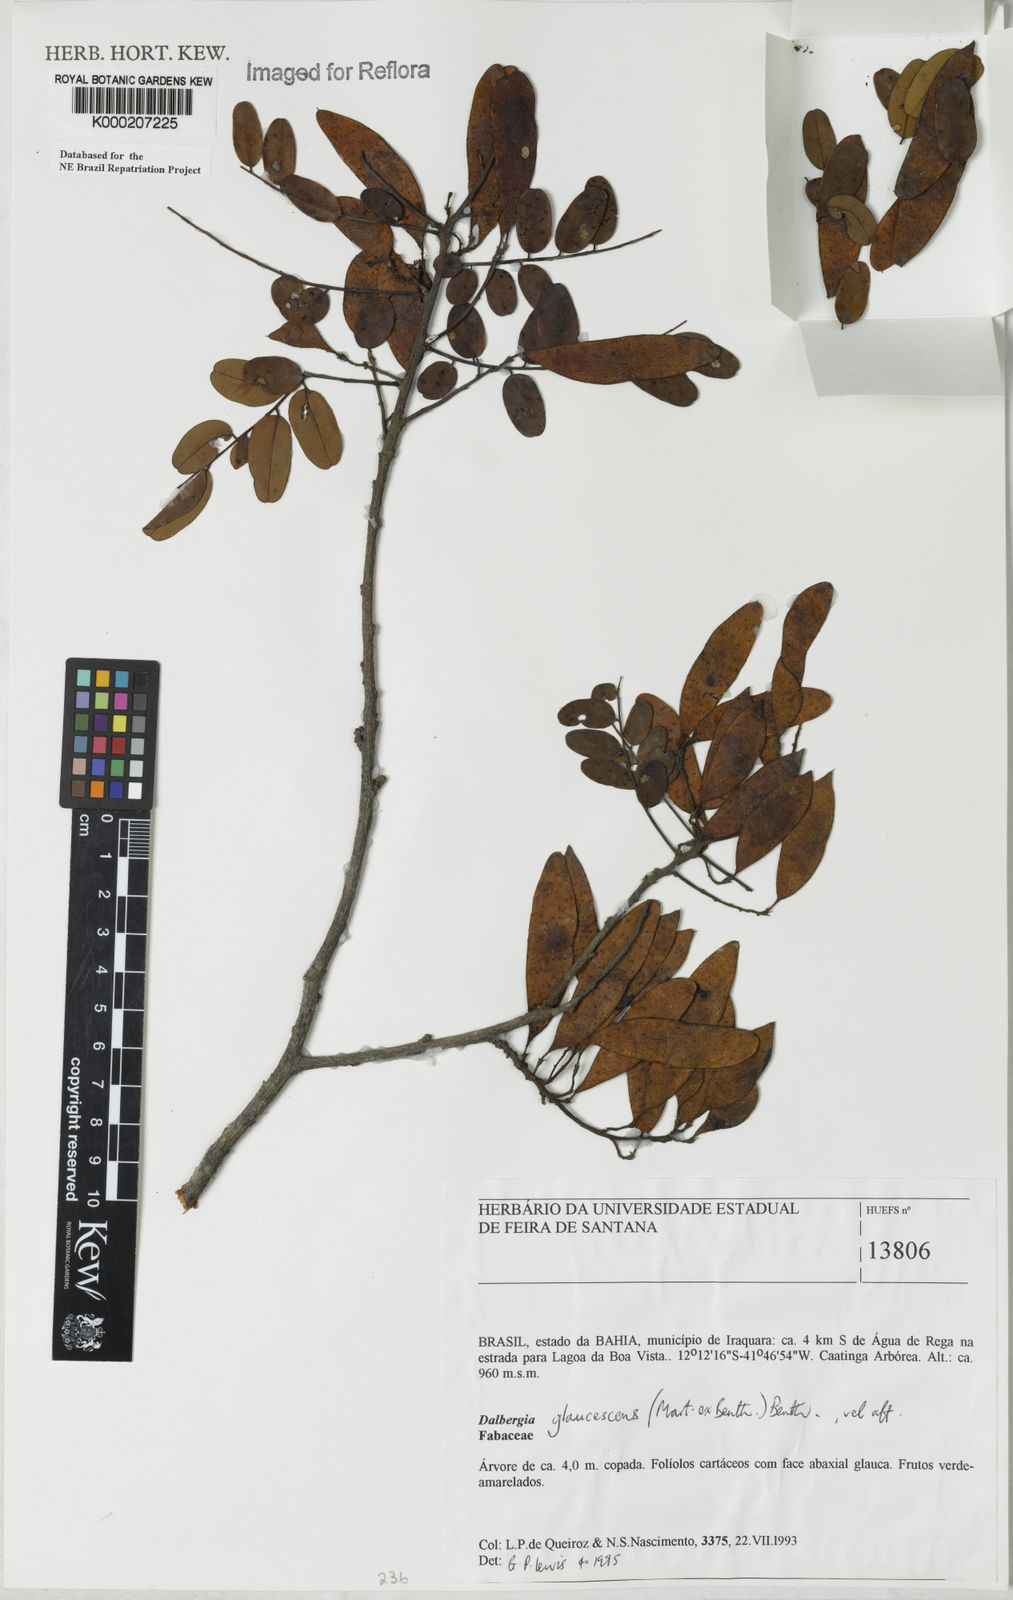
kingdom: Plantae
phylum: Tracheophyta
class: Magnoliopsida
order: Fabales
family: Fabaceae
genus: Dalbergia
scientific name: Dalbergia glaucescens
